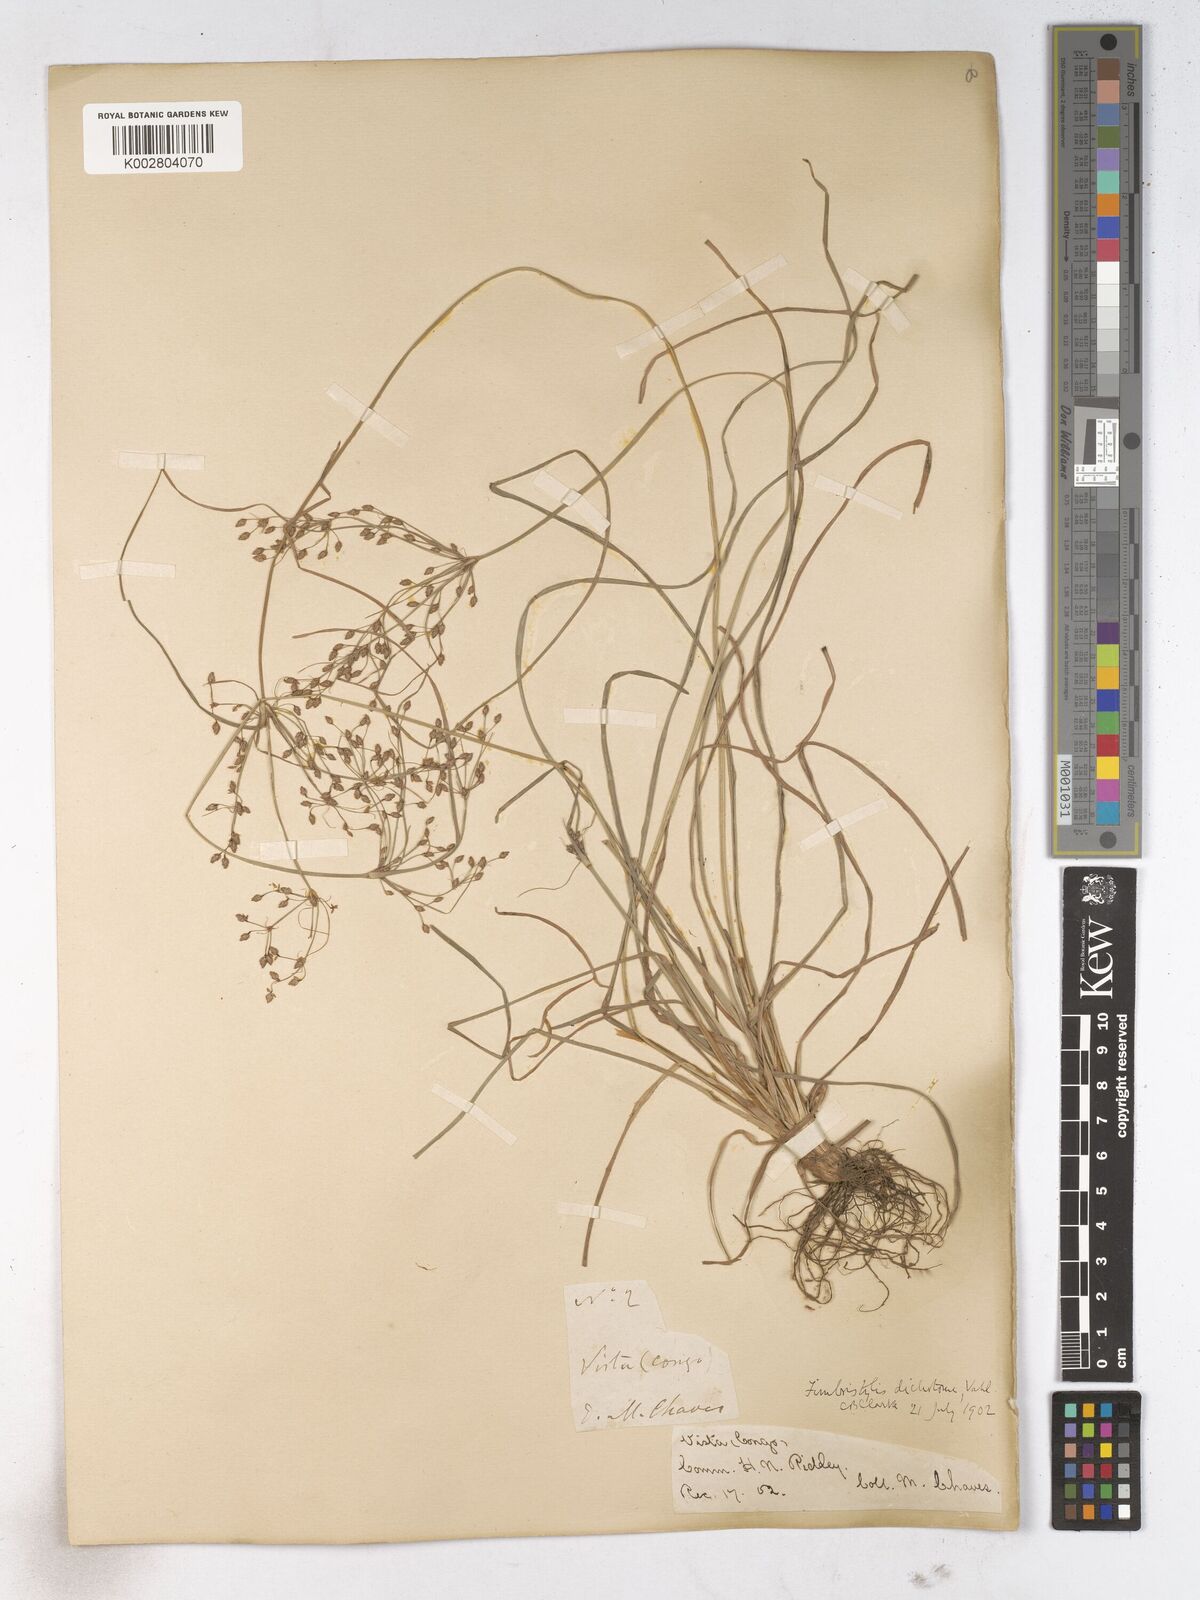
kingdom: Plantae
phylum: Tracheophyta
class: Liliopsida
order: Poales
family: Cyperaceae
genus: Fimbristylis
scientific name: Fimbristylis dichotoma
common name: Forked fimbry
